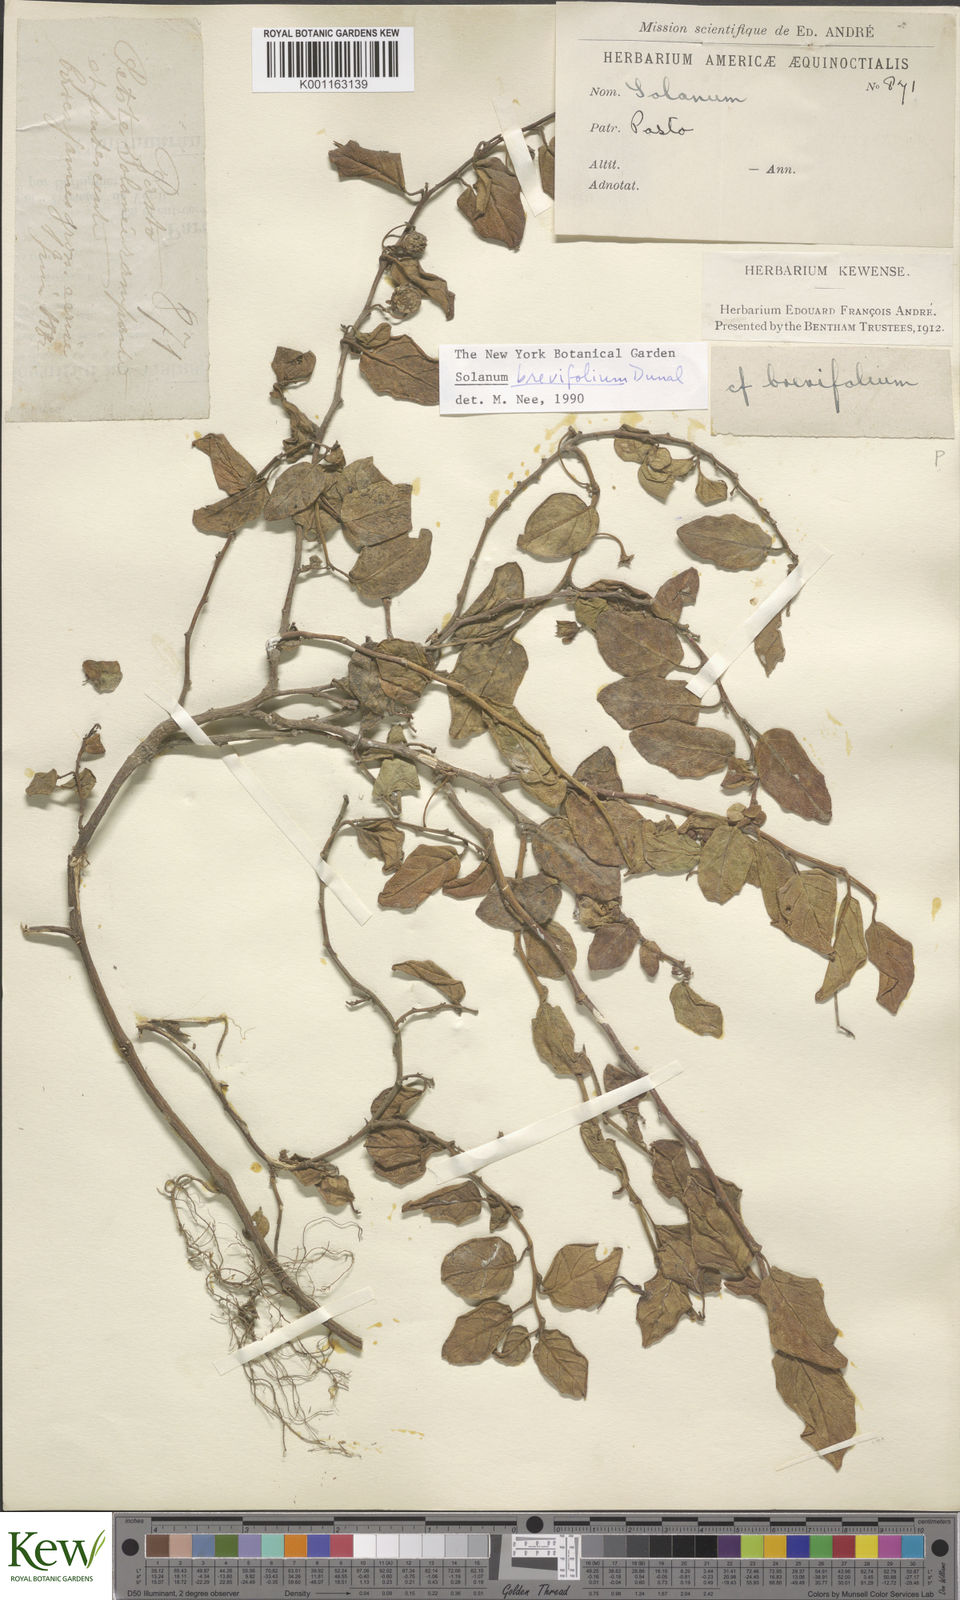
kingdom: Plantae
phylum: Tracheophyta
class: Magnoliopsida
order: Solanales
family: Solanaceae
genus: Solanum
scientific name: Solanum brevifolium
